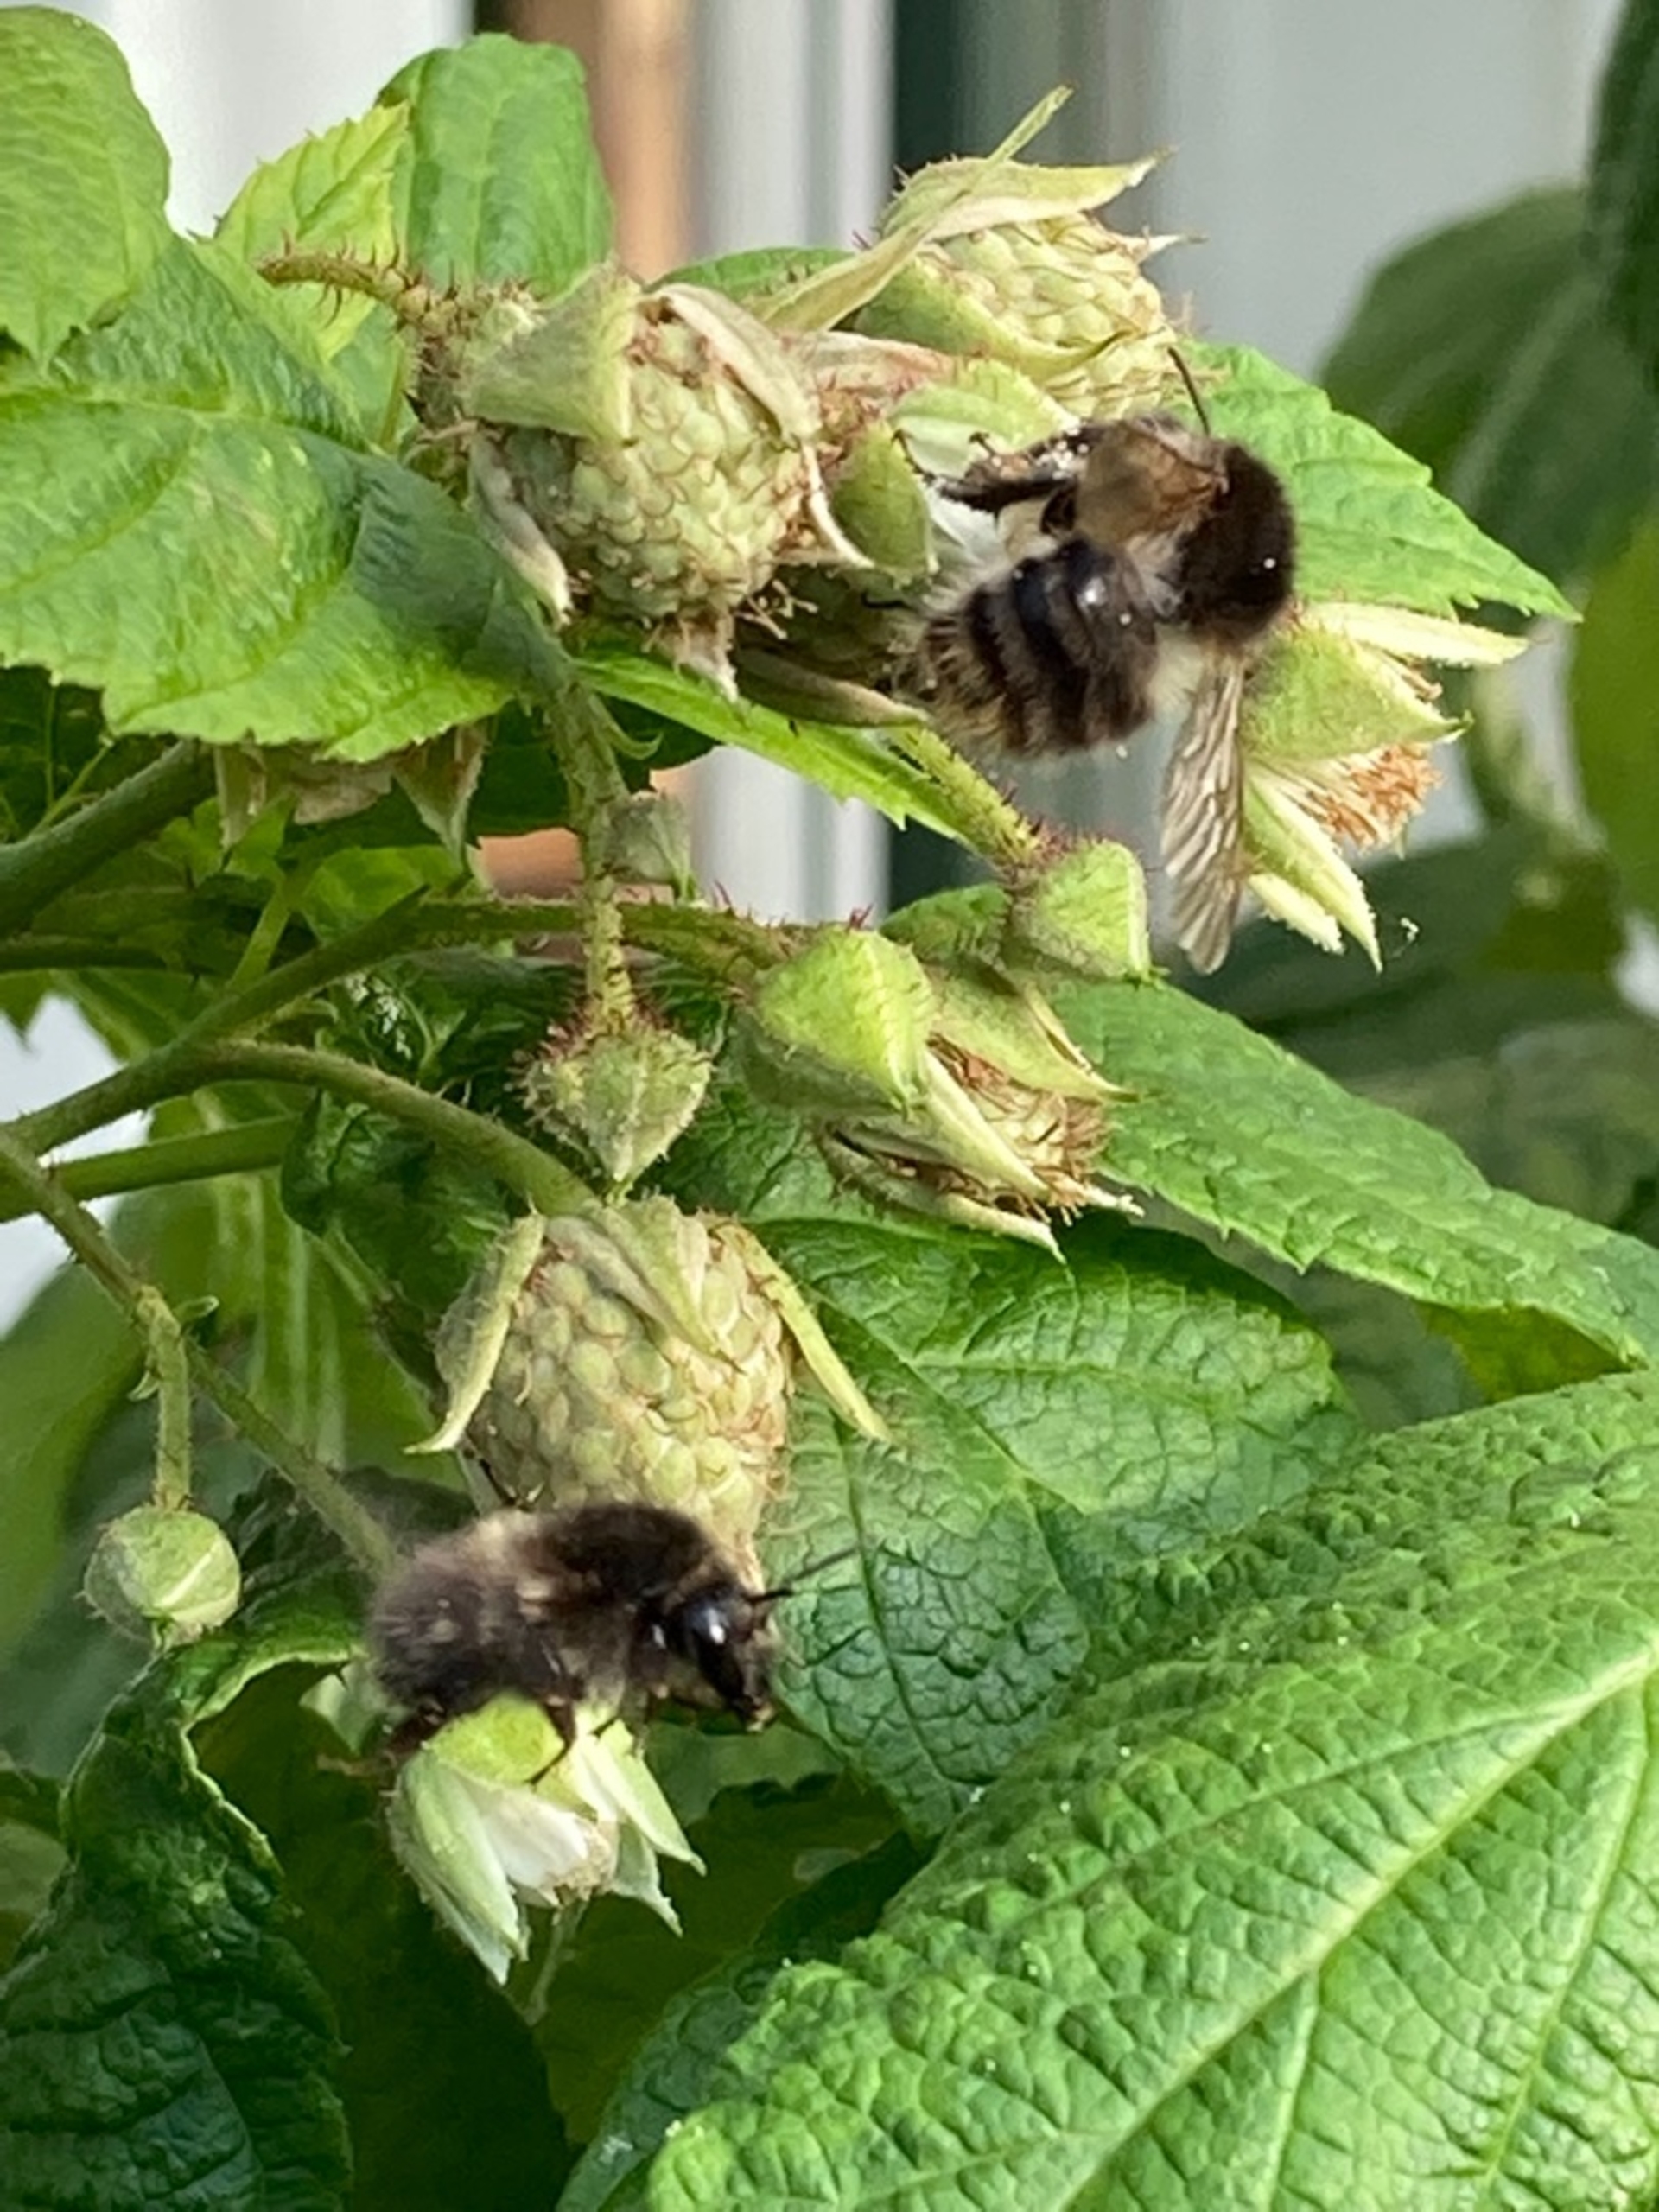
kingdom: Animalia
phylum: Arthropoda
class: Insecta
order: Hymenoptera
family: Apidae
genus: Bombus
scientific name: Bombus pascuorum
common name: Agerhumle
